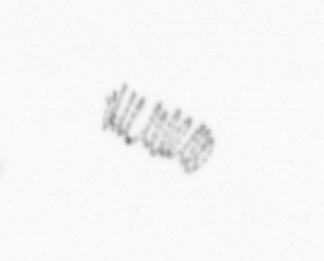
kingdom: Chromista
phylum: Ochrophyta
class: Bacillariophyceae
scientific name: Bacillariophyceae
